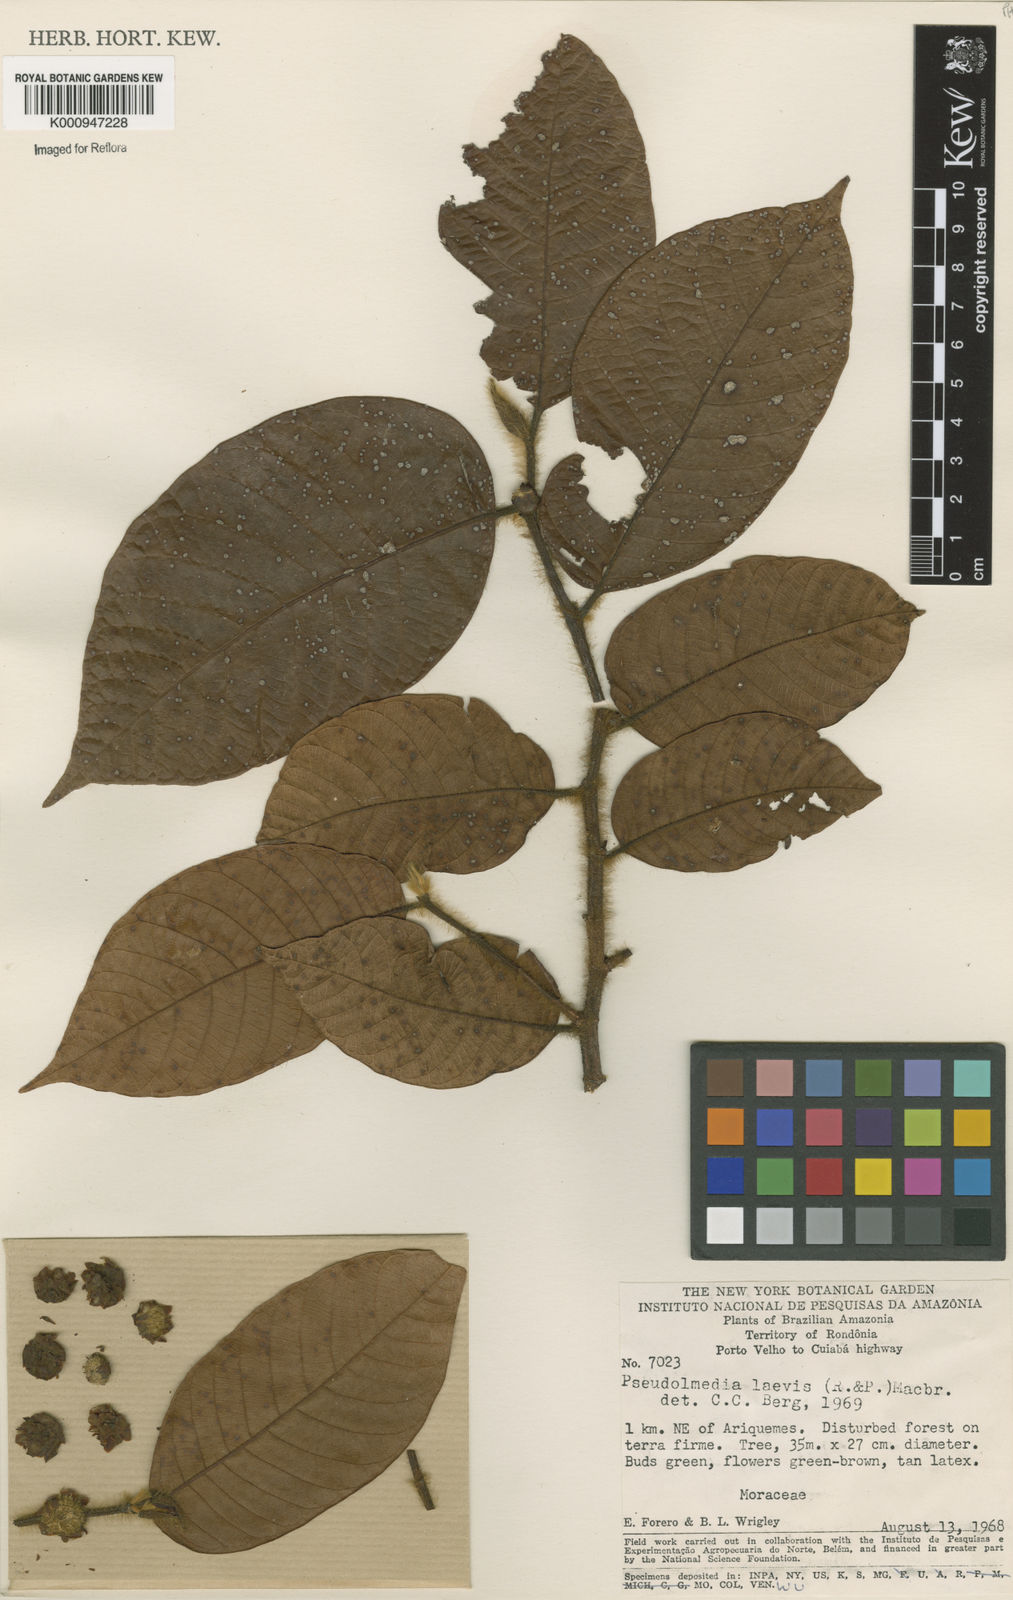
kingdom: Plantae
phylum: Tracheophyta
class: Magnoliopsida
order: Rosales
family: Moraceae
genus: Pseudolmedia
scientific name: Pseudolmedia laevis
